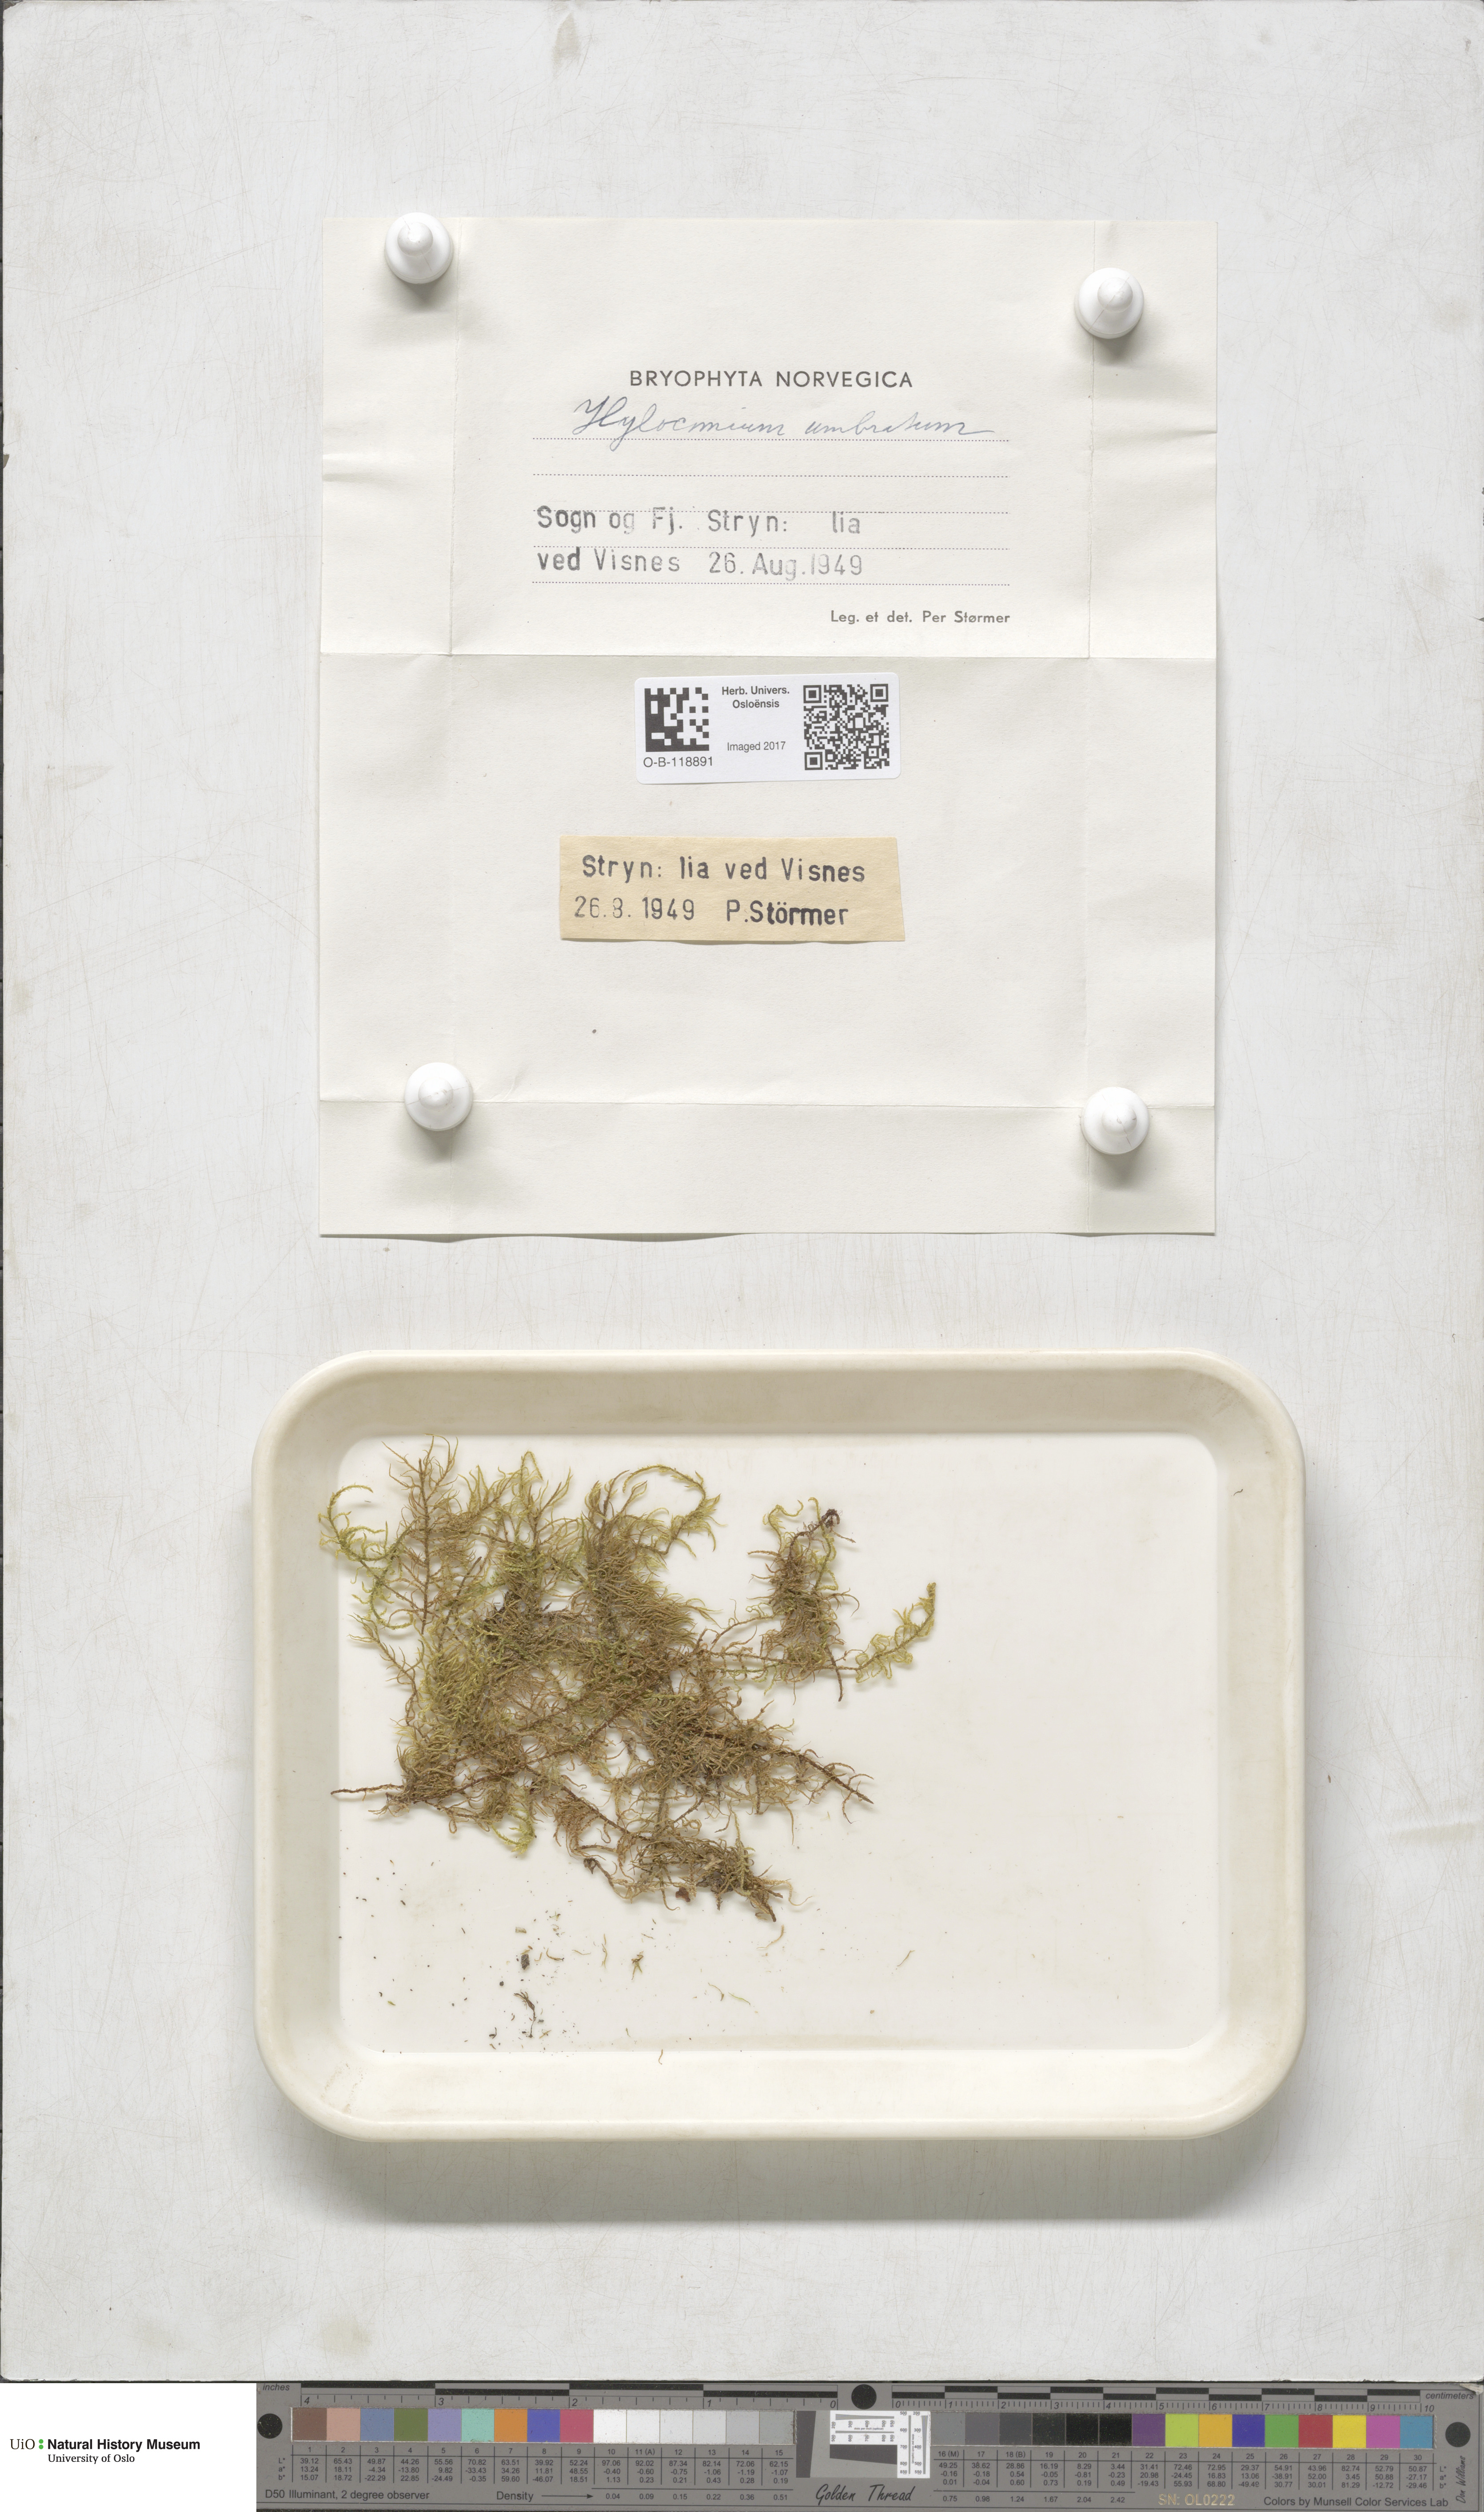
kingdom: Plantae
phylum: Bryophyta
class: Bryopsida
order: Hypnales
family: Hylocomiaceae
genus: Hylocomiastrum
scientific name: Hylocomiastrum umbratum
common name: Shaded woods moss
